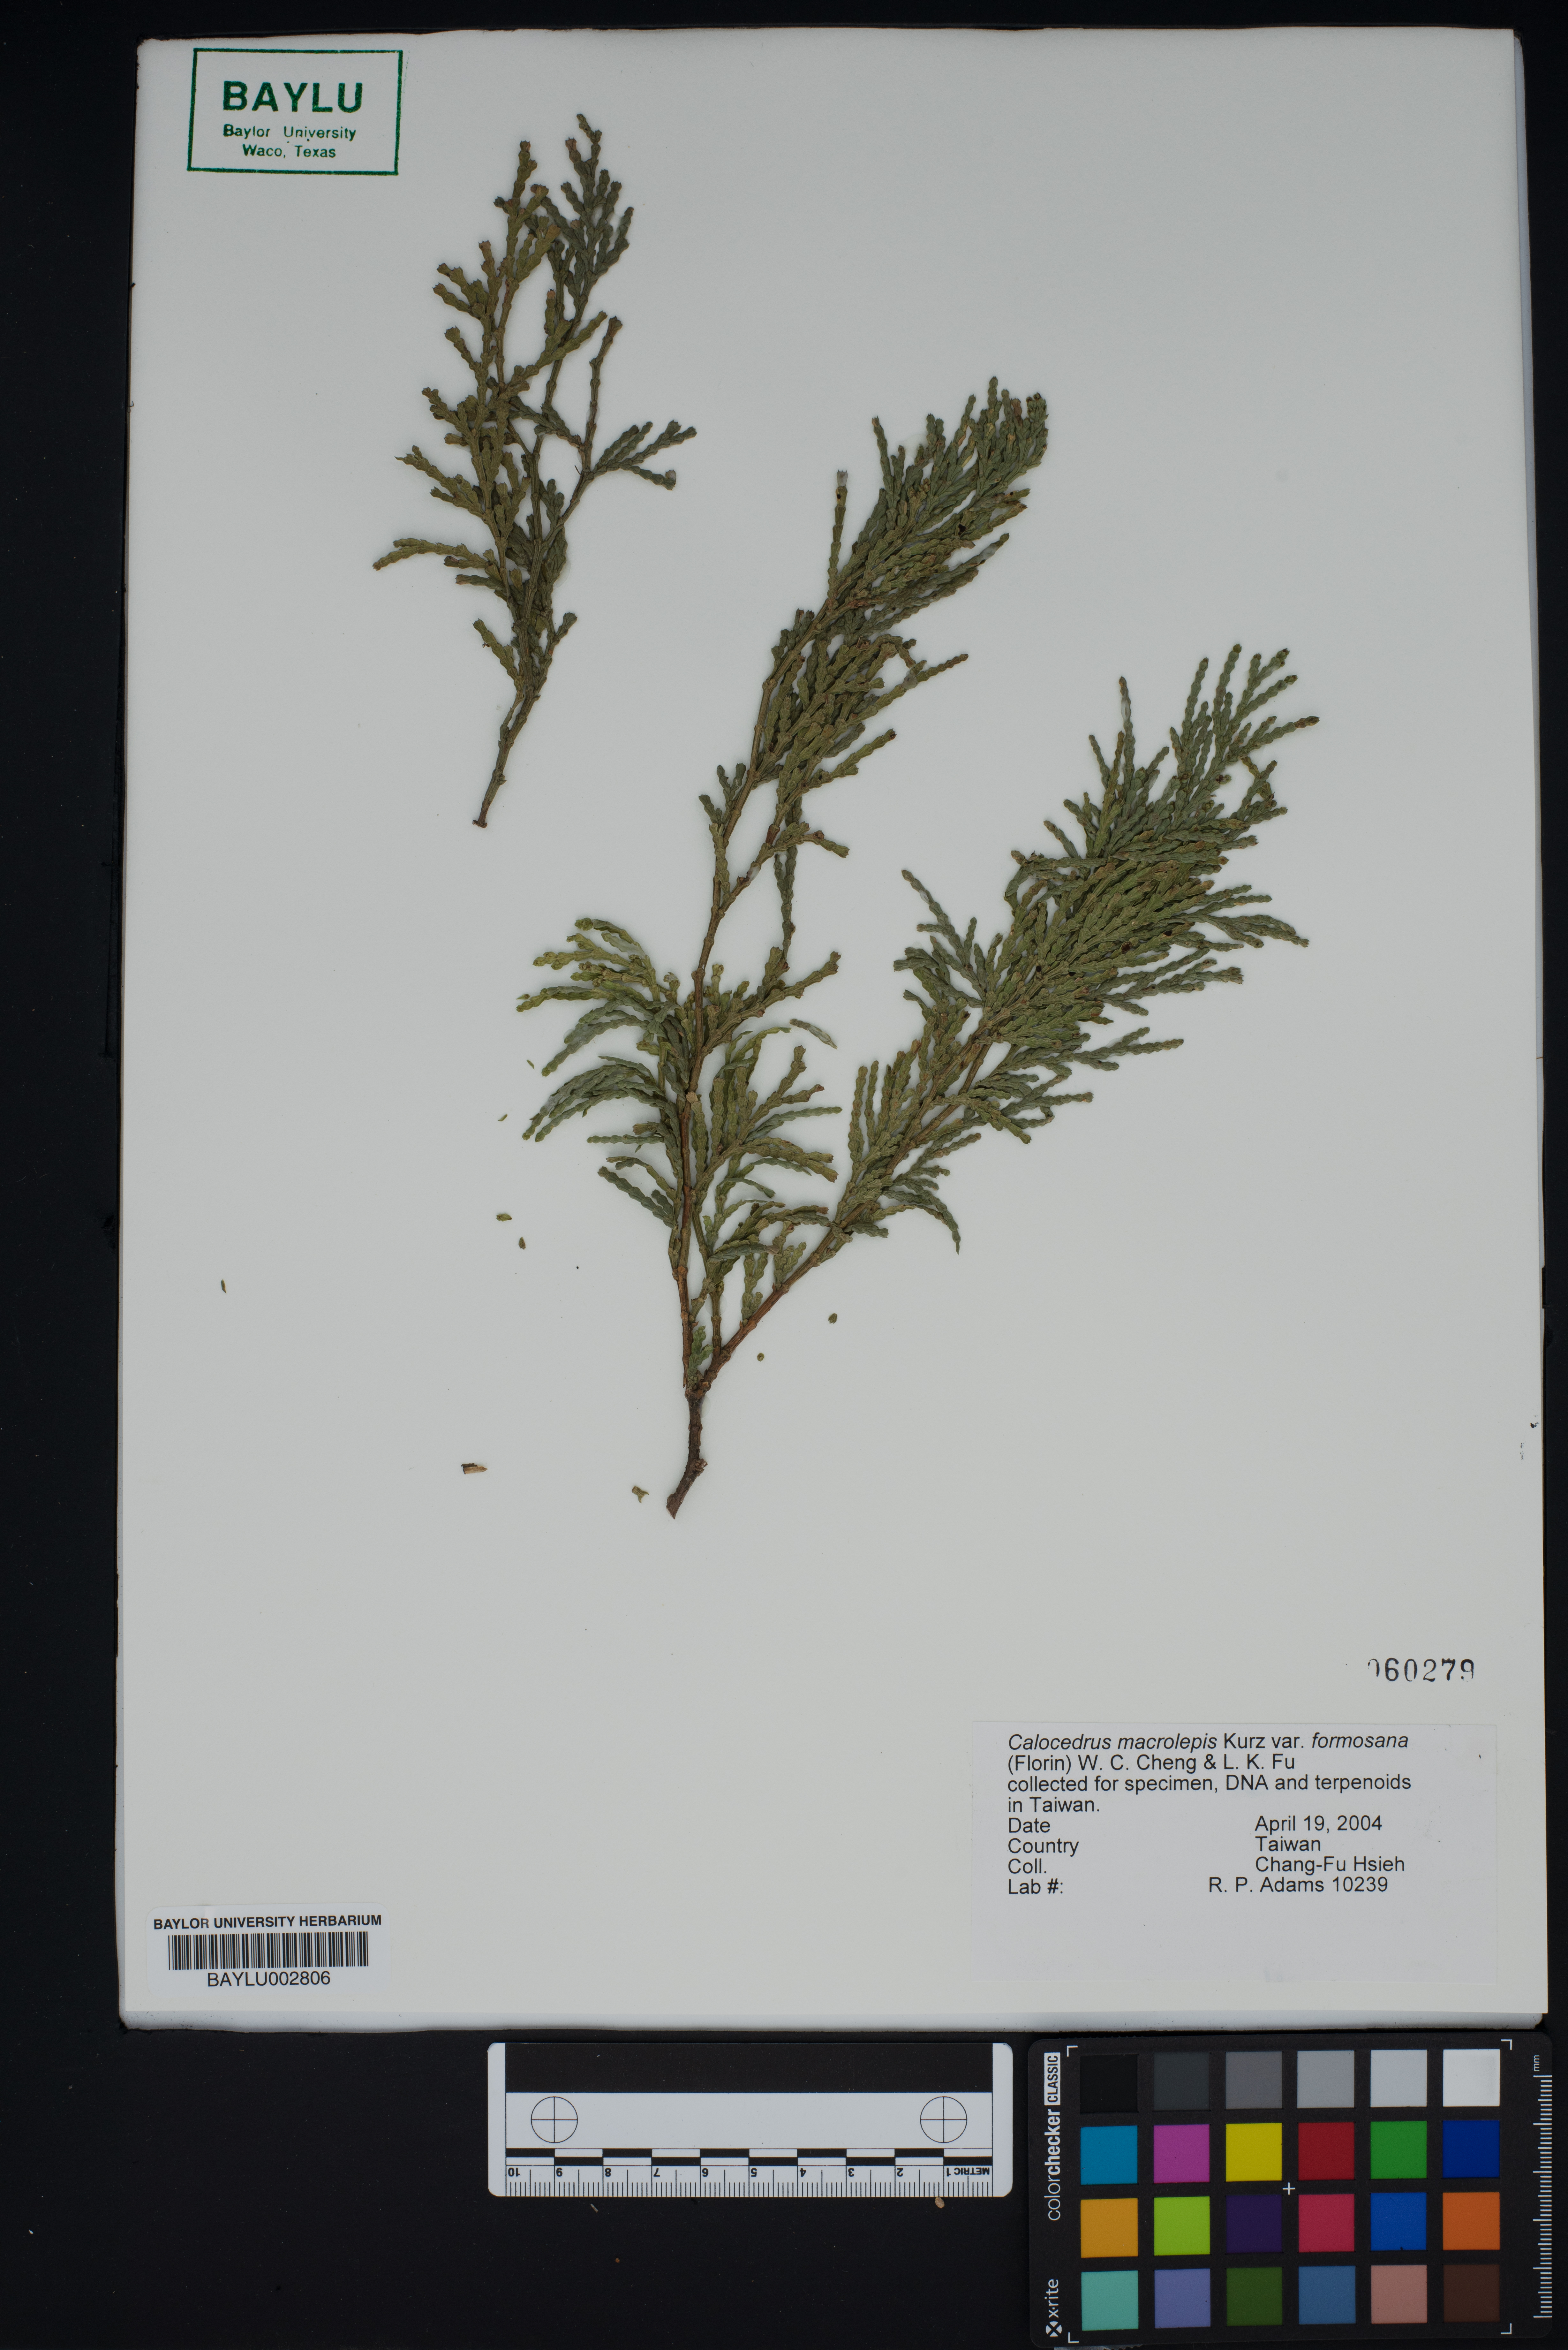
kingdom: Plantae
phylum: Tracheophyta
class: Pinopsida
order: Pinales
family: Cupressaceae
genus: Calocedrus
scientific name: Calocedrus formosana
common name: Taiwan incense-cedar
